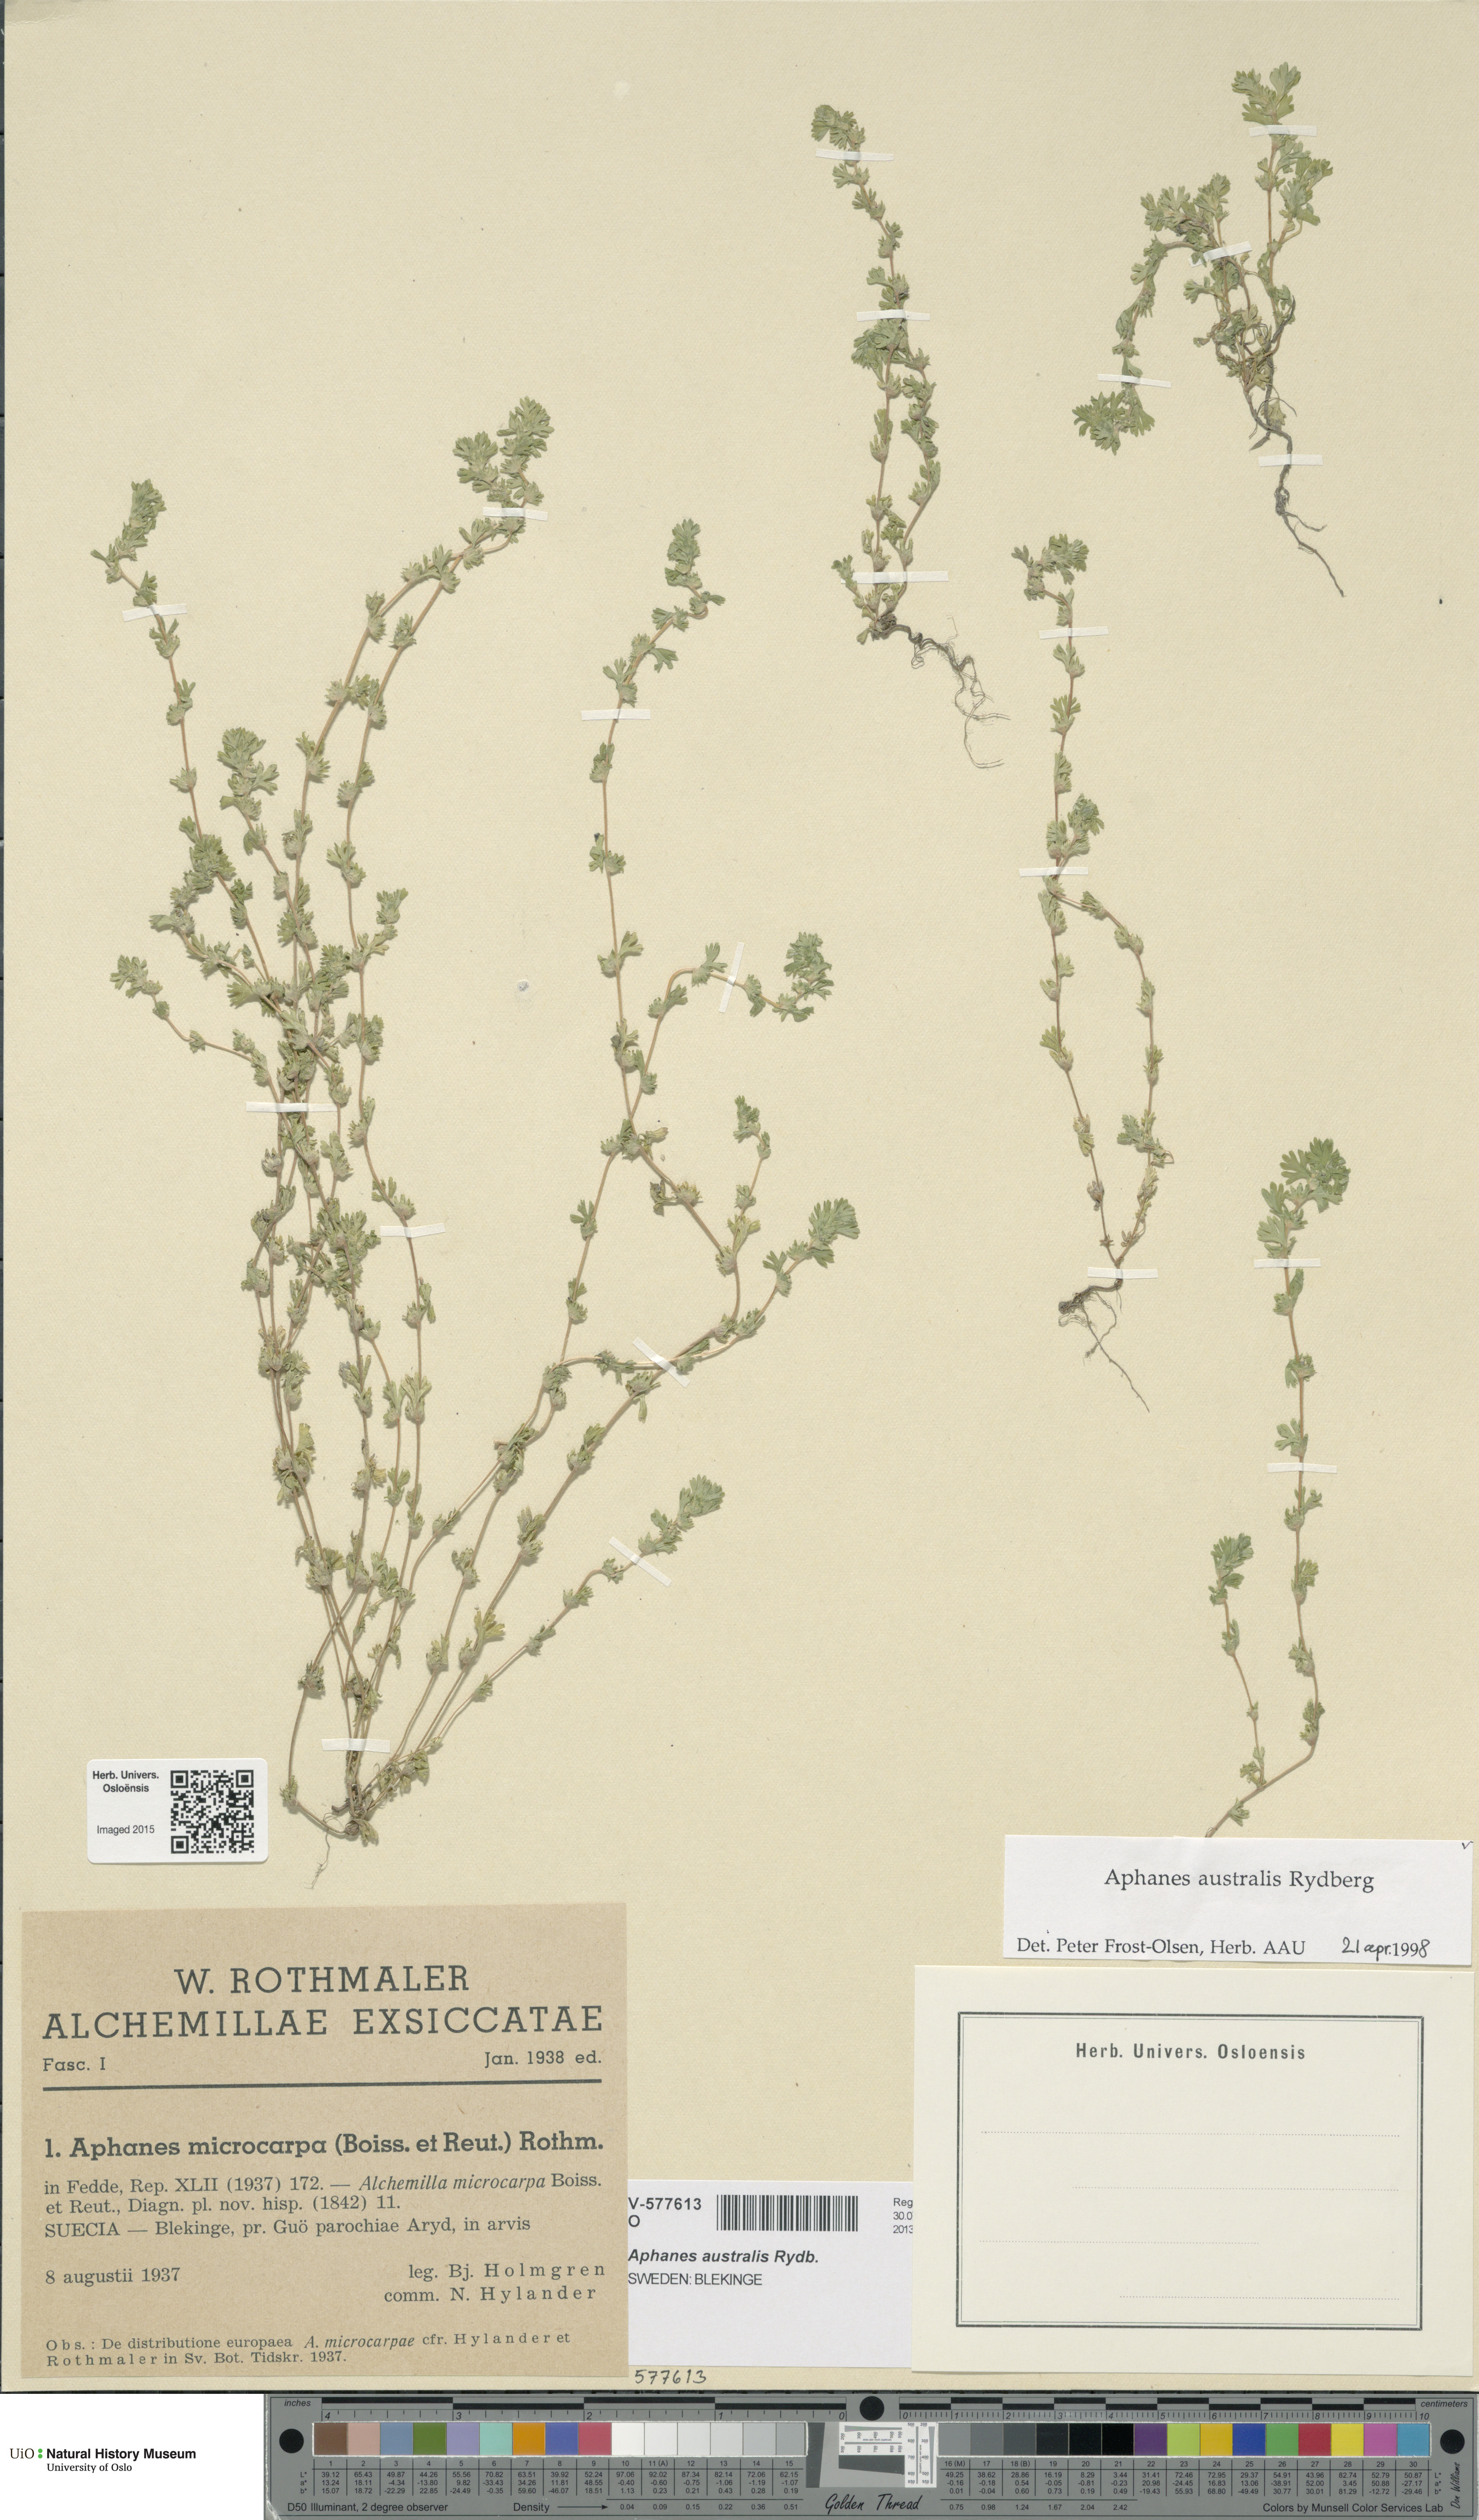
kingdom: Plantae
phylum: Tracheophyta
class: Magnoliopsida
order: Rosales
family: Rosaceae
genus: Aphanes
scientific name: Aphanes australis
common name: Slender parsley-piert
